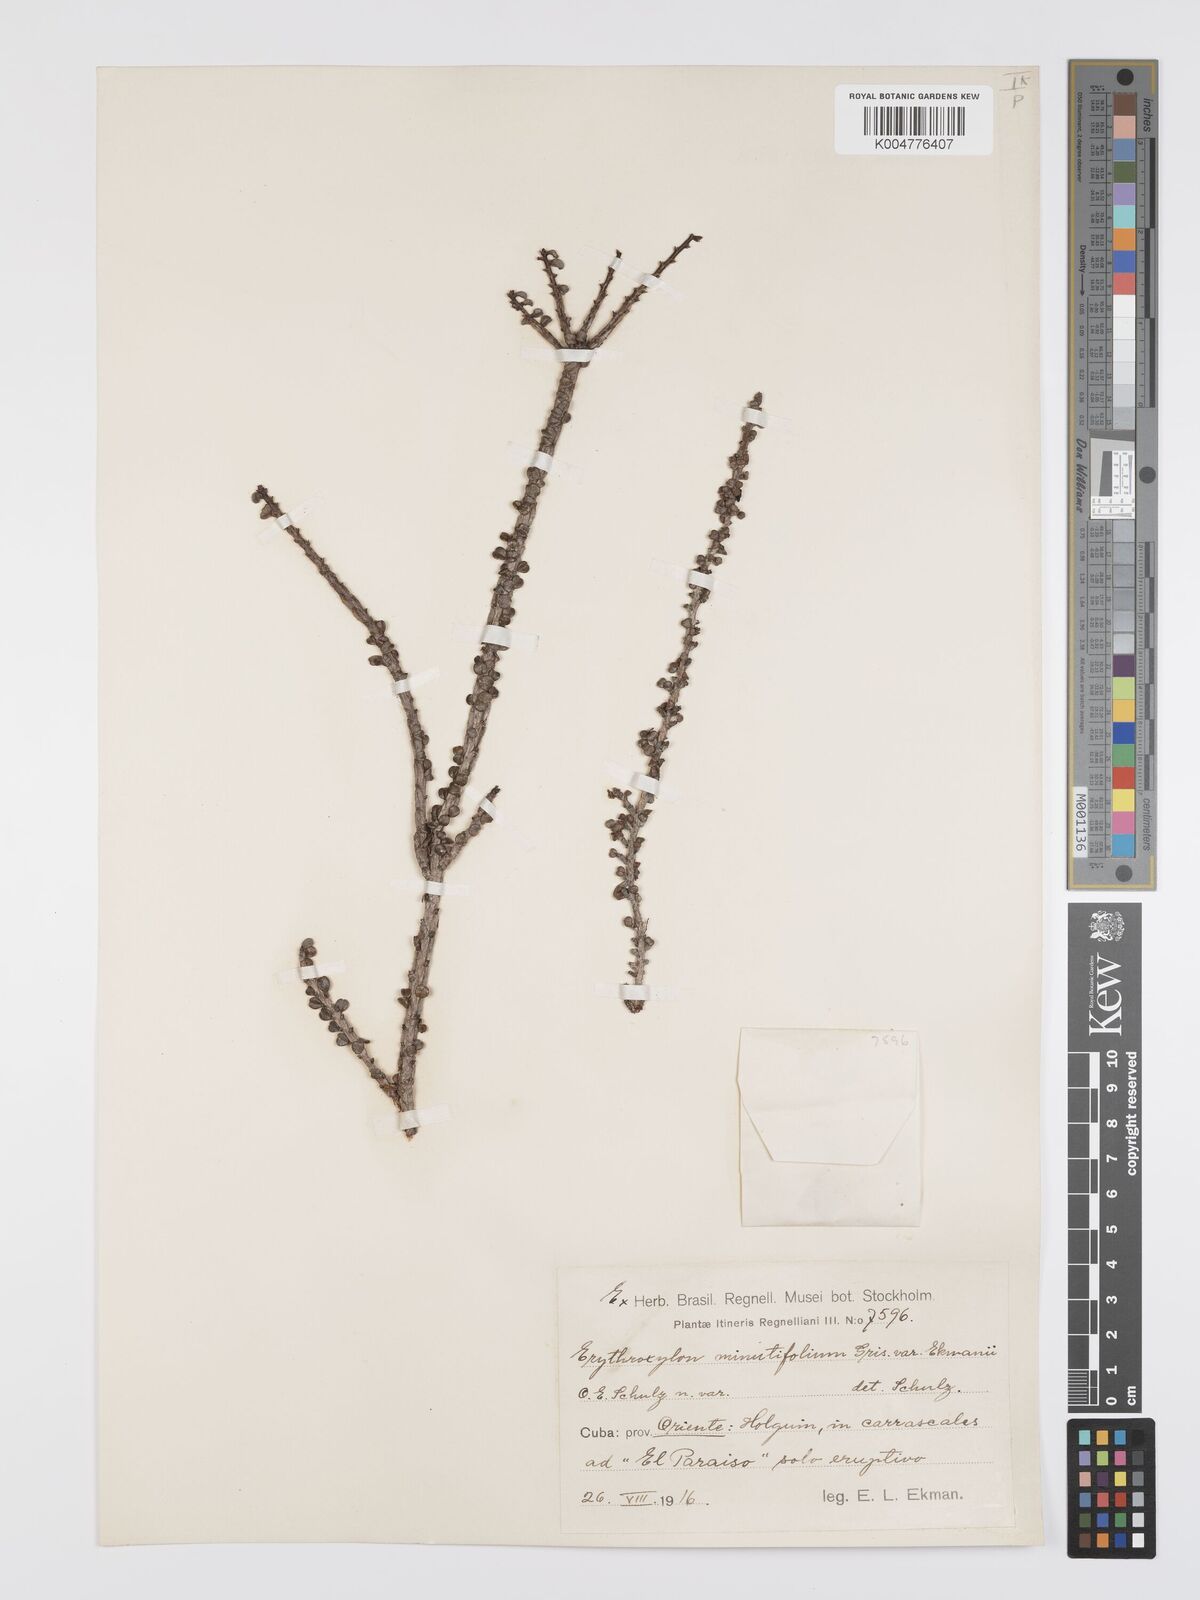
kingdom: Plantae
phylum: Tracheophyta
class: Magnoliopsida
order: Malpighiales
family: Erythroxylaceae
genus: Erythroxylum
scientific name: Erythroxylum minutifolium
